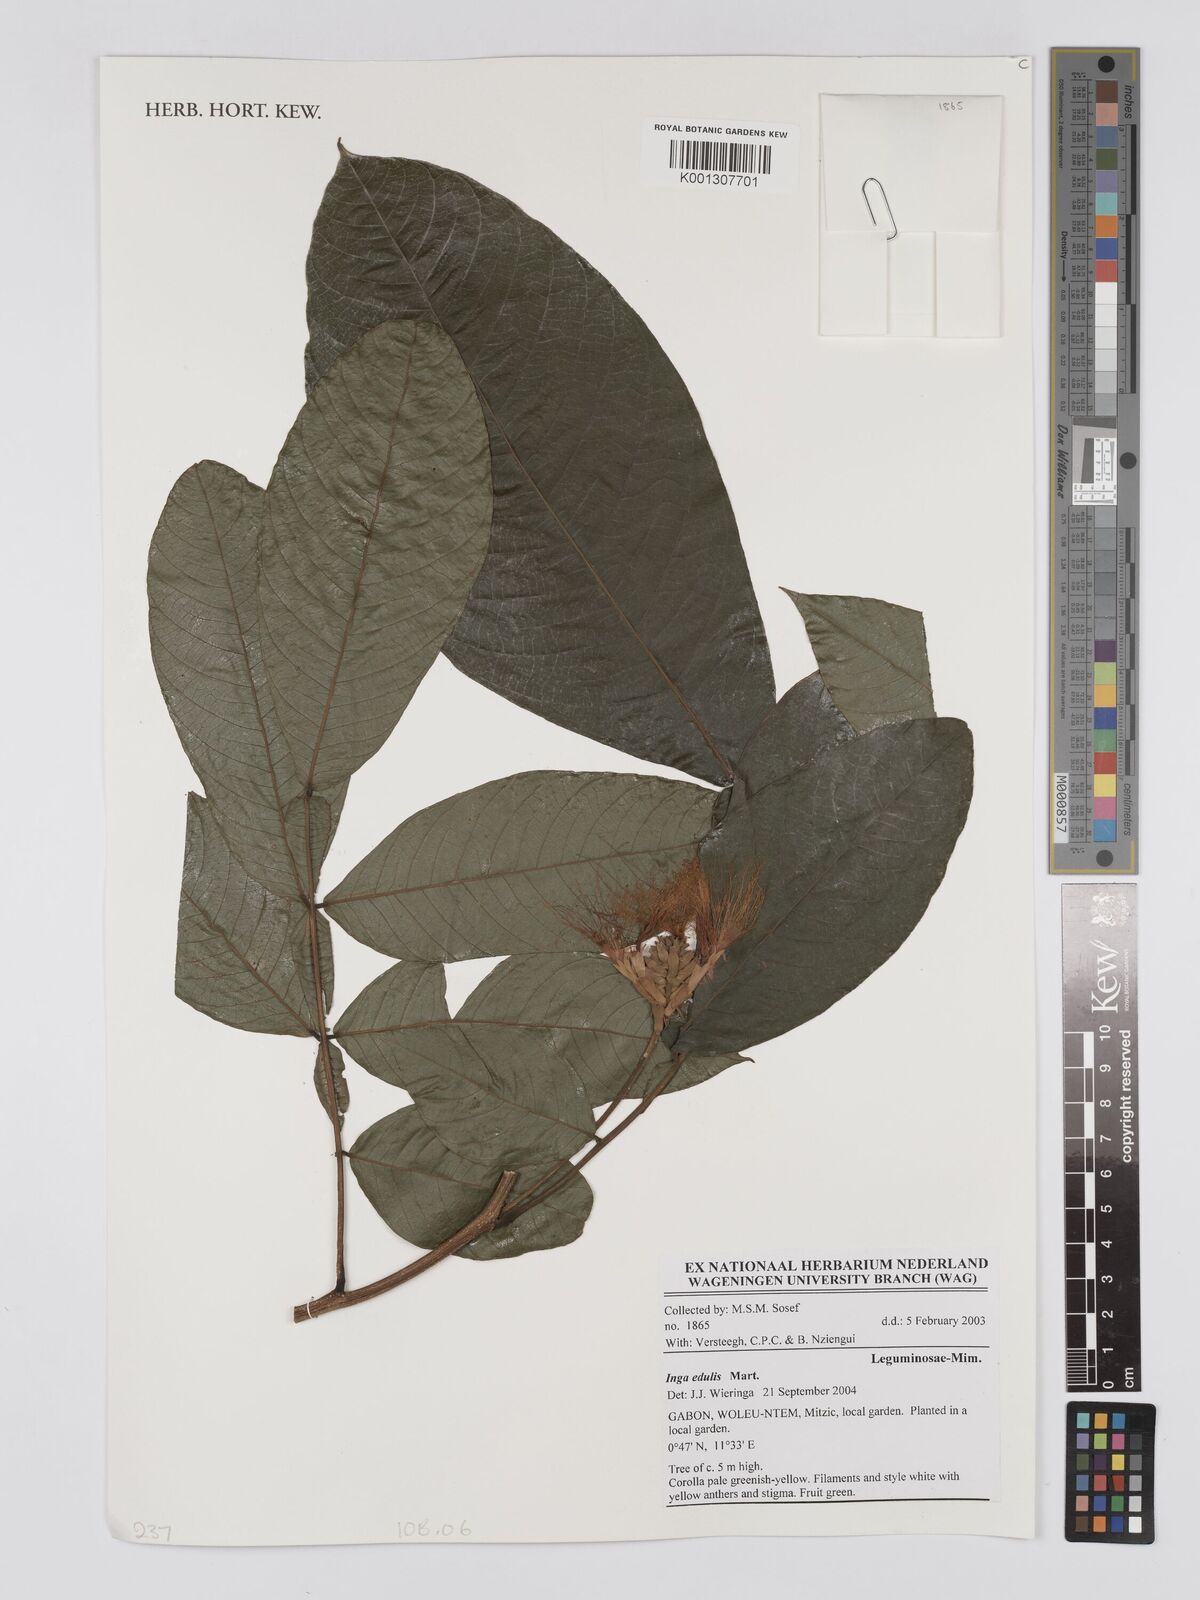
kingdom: Plantae
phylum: Tracheophyta
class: Magnoliopsida
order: Fabales
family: Fabaceae
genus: Inga
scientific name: Inga edulis
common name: Ice cream bean
